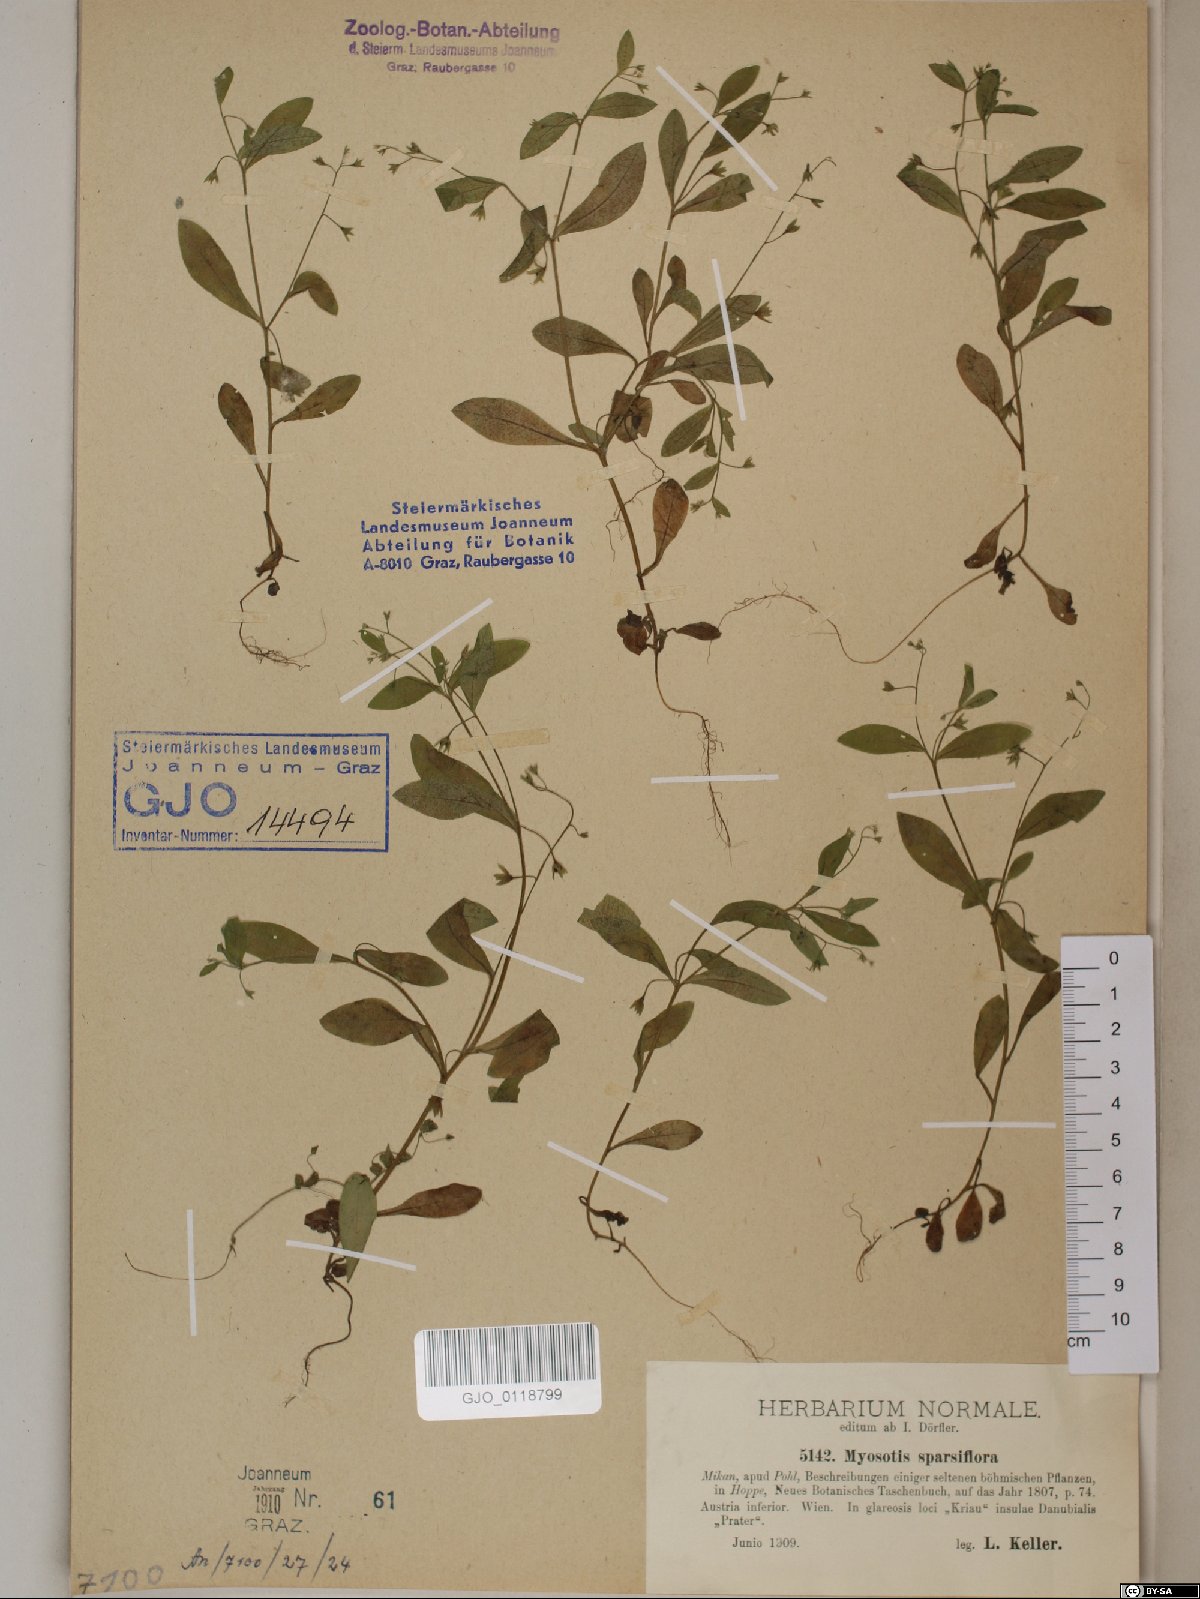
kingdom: Plantae
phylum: Tracheophyta
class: Magnoliopsida
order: Boraginales
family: Boraginaceae
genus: Myosotis
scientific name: Myosotis sparsiflora
